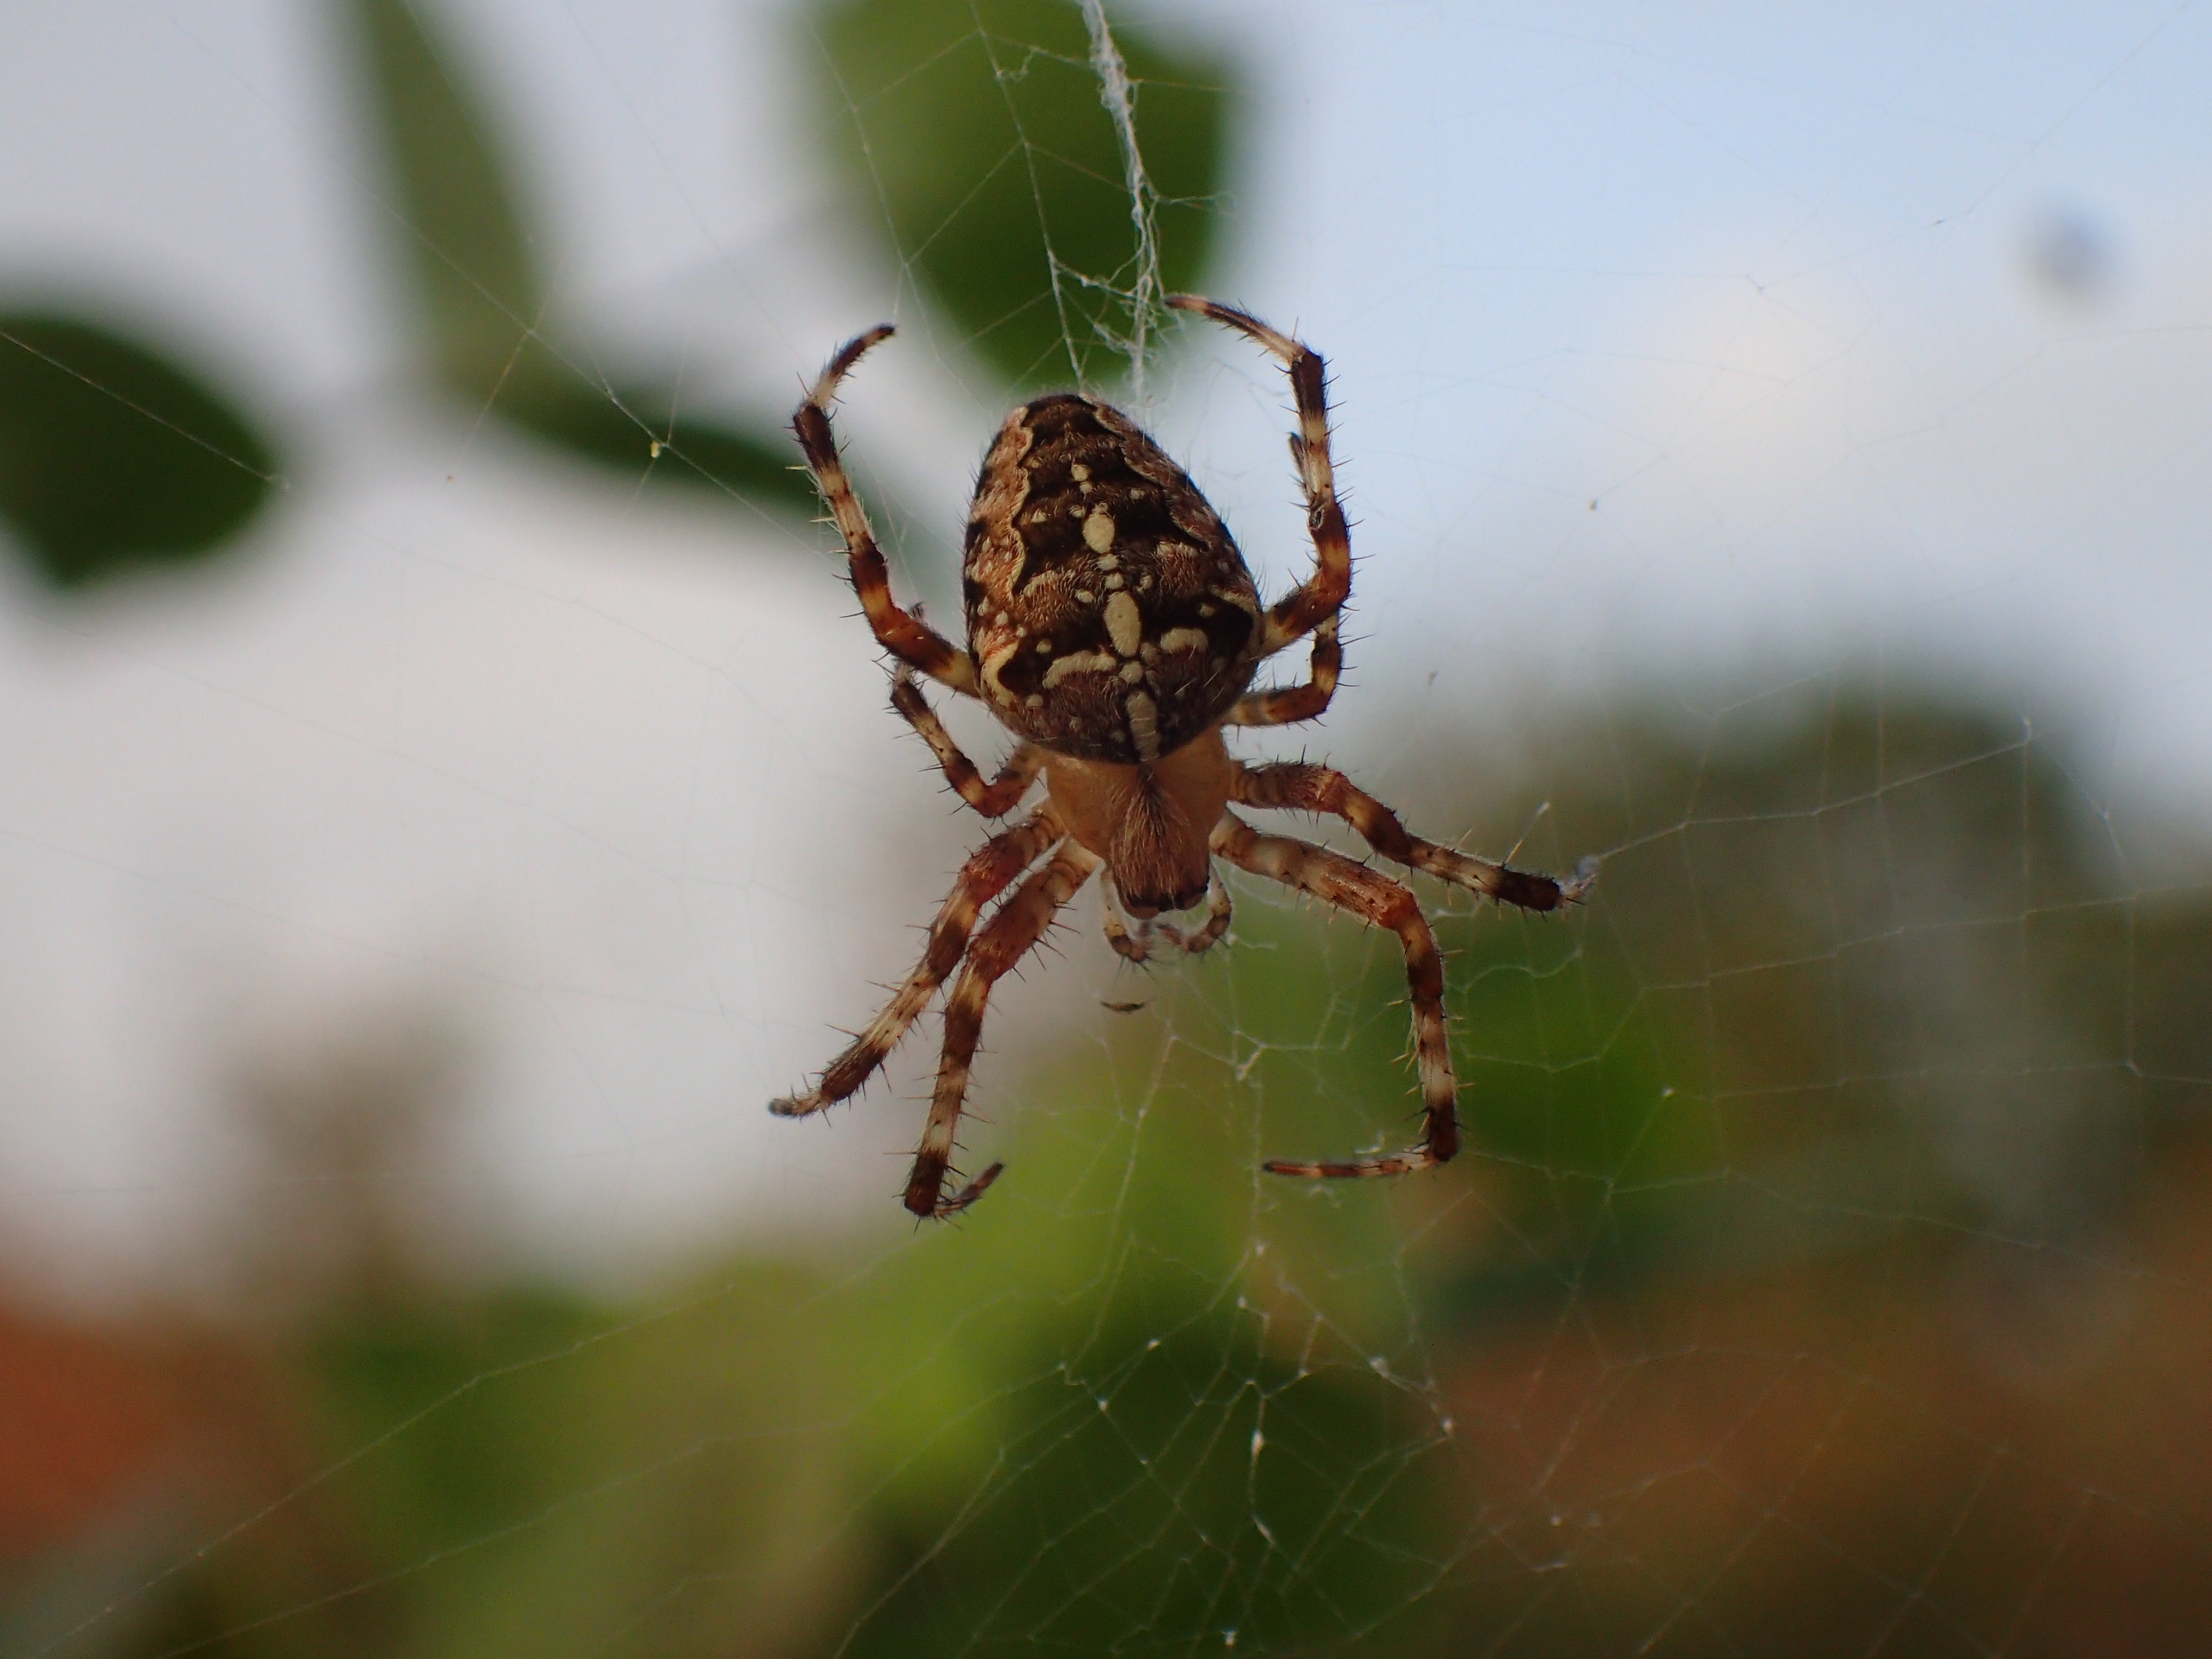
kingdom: Animalia
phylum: Arthropoda
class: Arachnida
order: Araneae
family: Araneidae
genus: Araneus
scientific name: Araneus diadematus
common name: Korsedderkop
